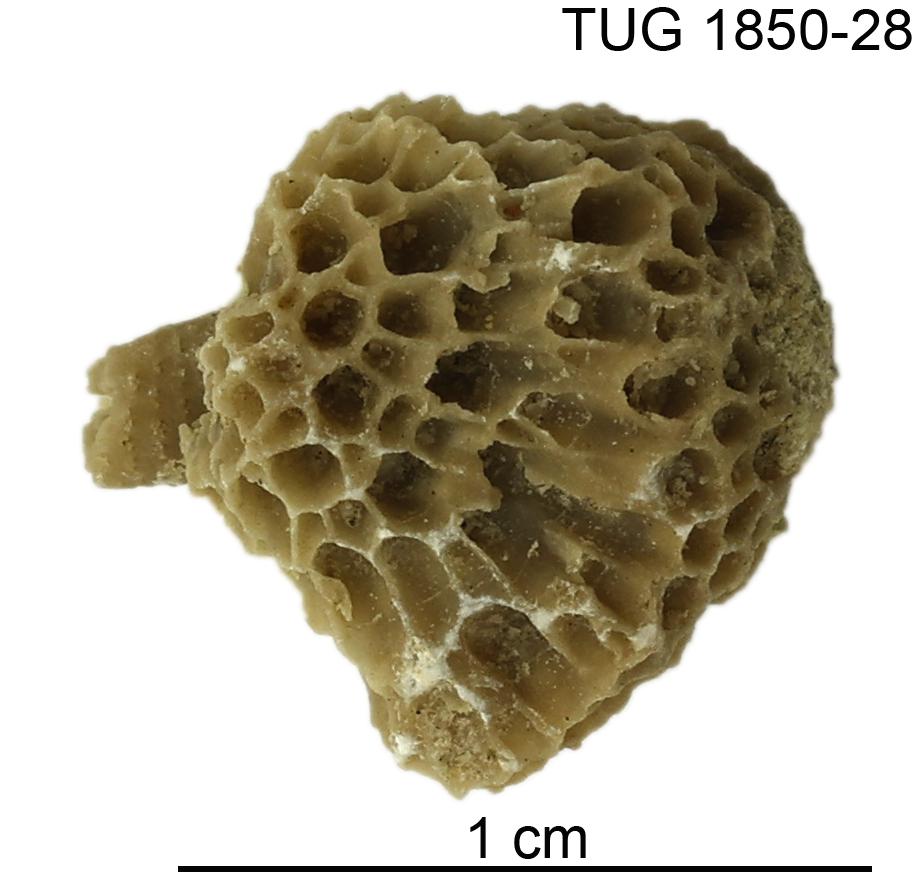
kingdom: Animalia
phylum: Cnidaria
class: Anthozoa
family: Favositidae
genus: Favosites
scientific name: Favosites
